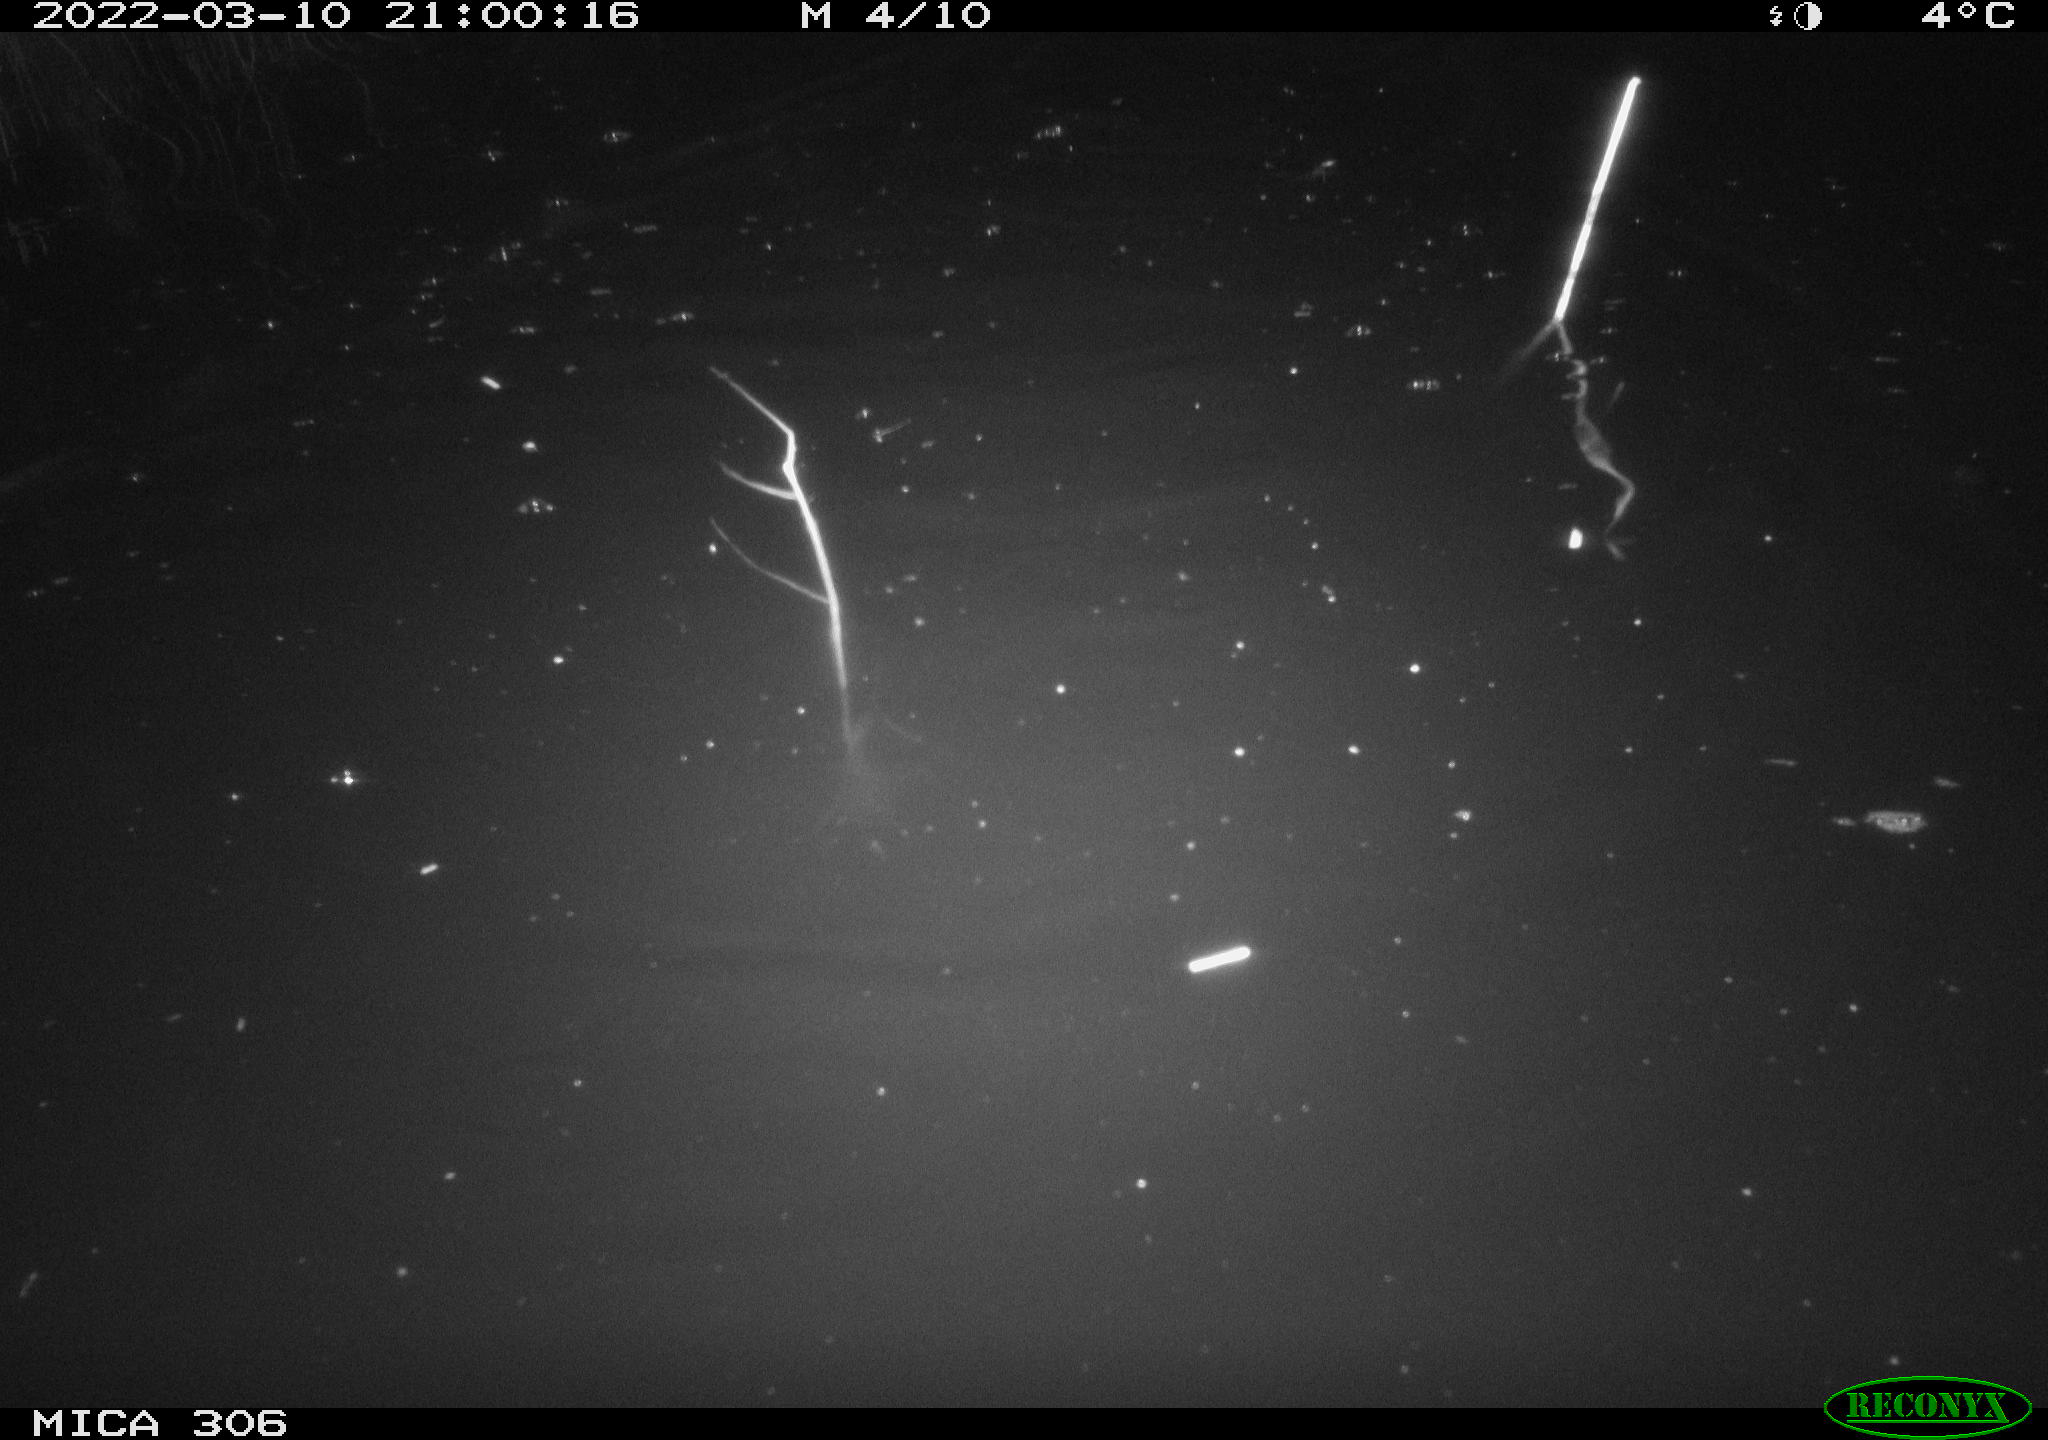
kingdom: Animalia
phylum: Chordata
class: Mammalia
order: Rodentia
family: Cricetidae
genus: Ondatra
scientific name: Ondatra zibethicus
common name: Muskrat
